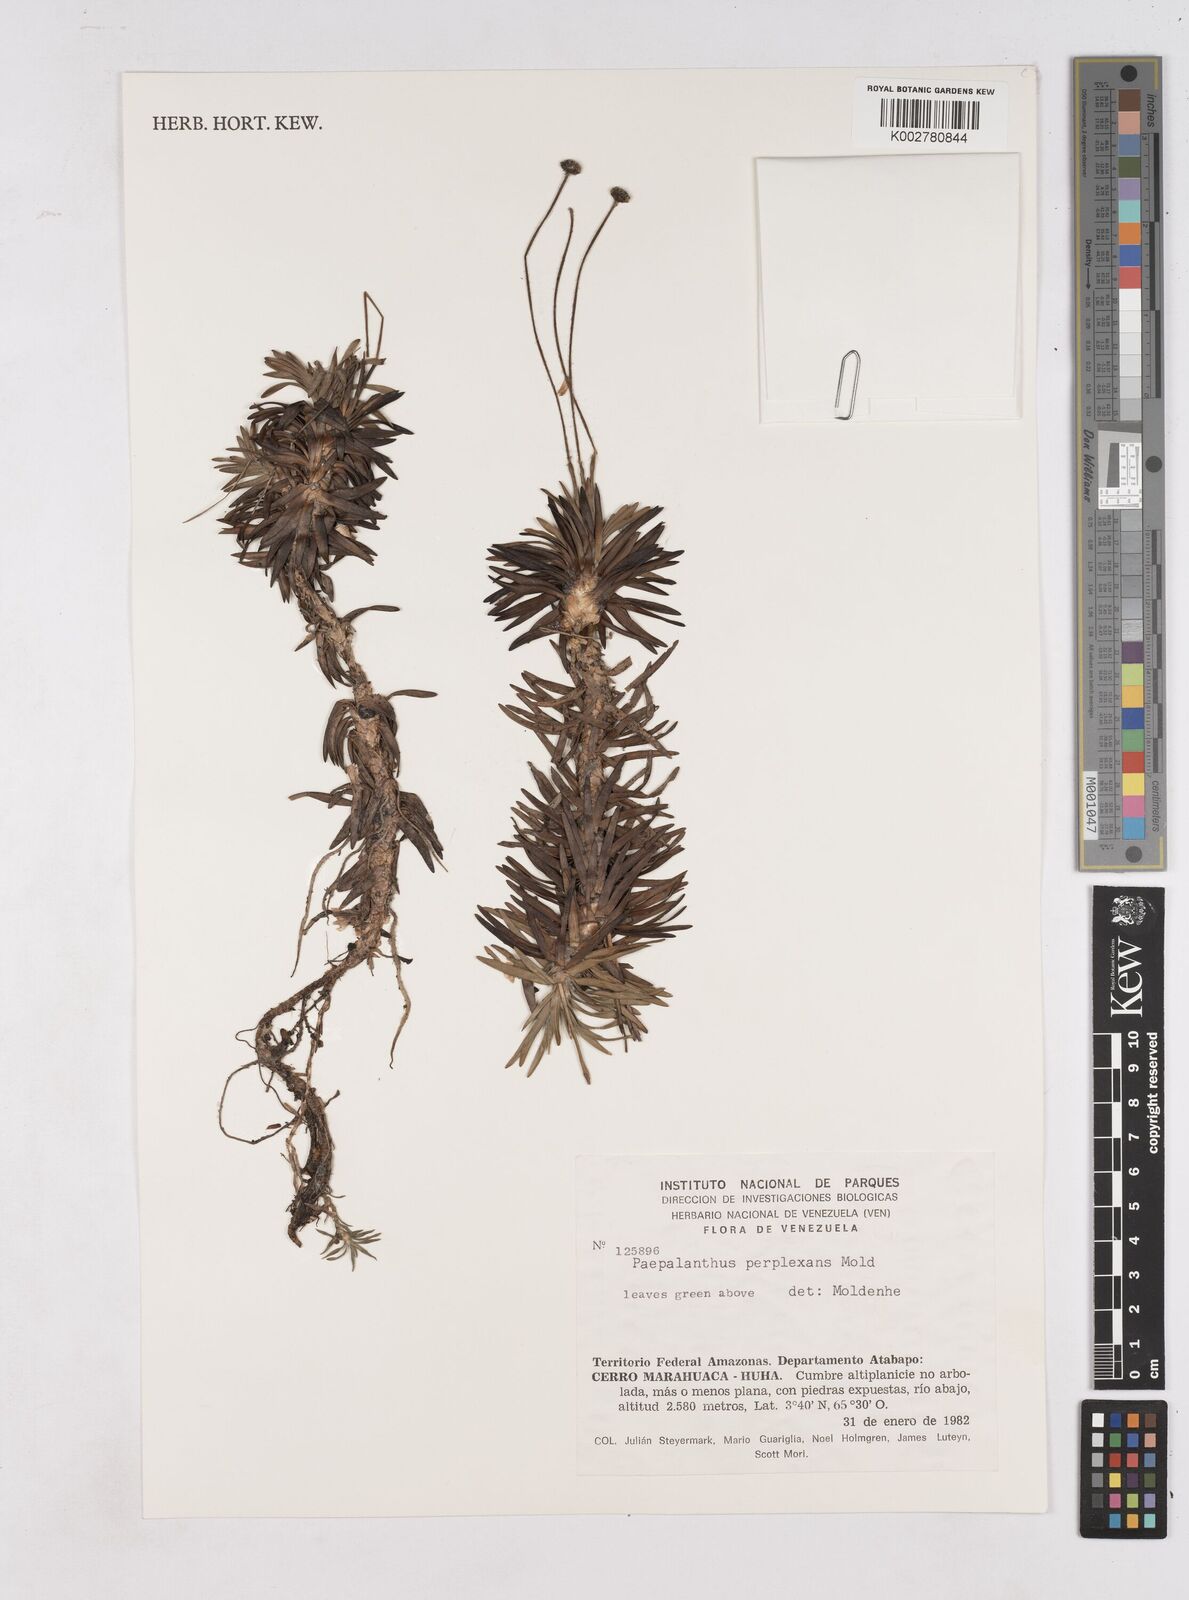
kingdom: Plantae
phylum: Tracheophyta
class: Liliopsida
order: Poales
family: Eriocaulaceae
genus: Paepalanthus
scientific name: Paepalanthus schomburgkii
